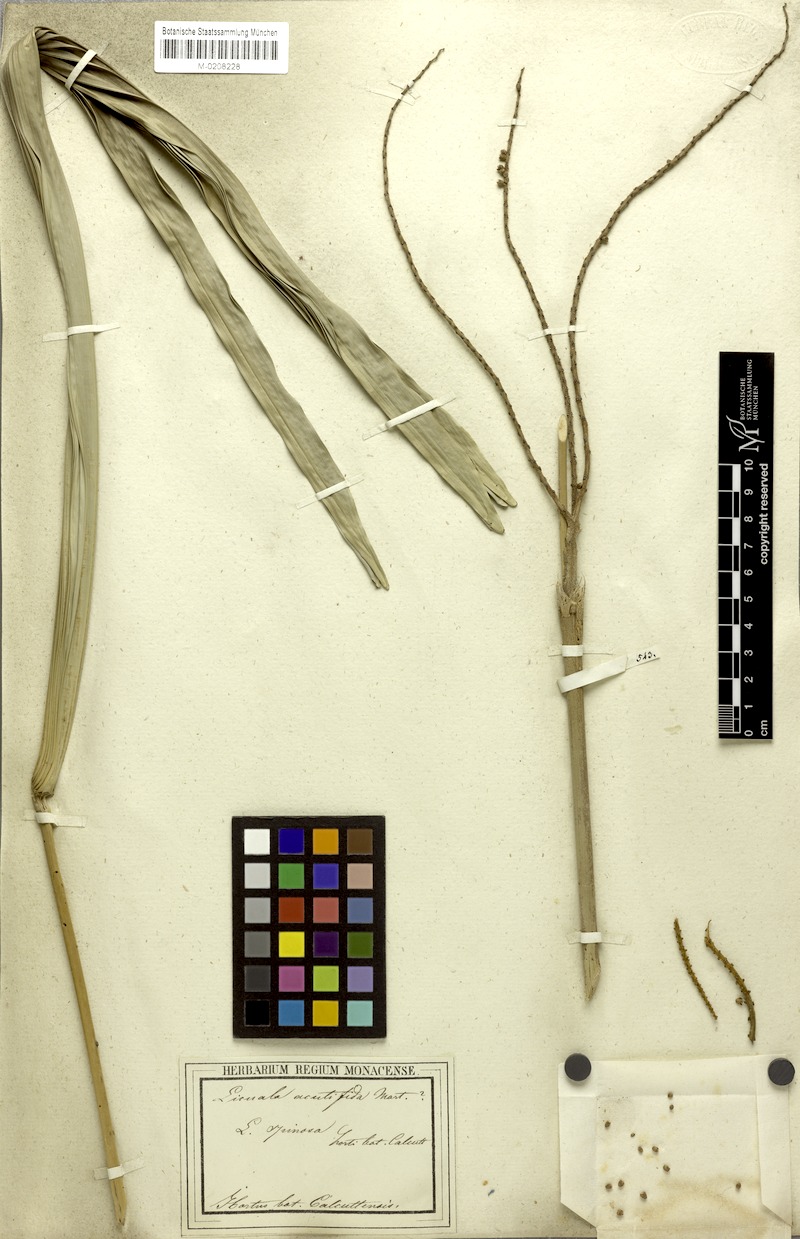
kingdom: Plantae
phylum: Tracheophyta
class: Liliopsida
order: Arecales
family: Arecaceae
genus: Licuala
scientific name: Licuala acutifida
